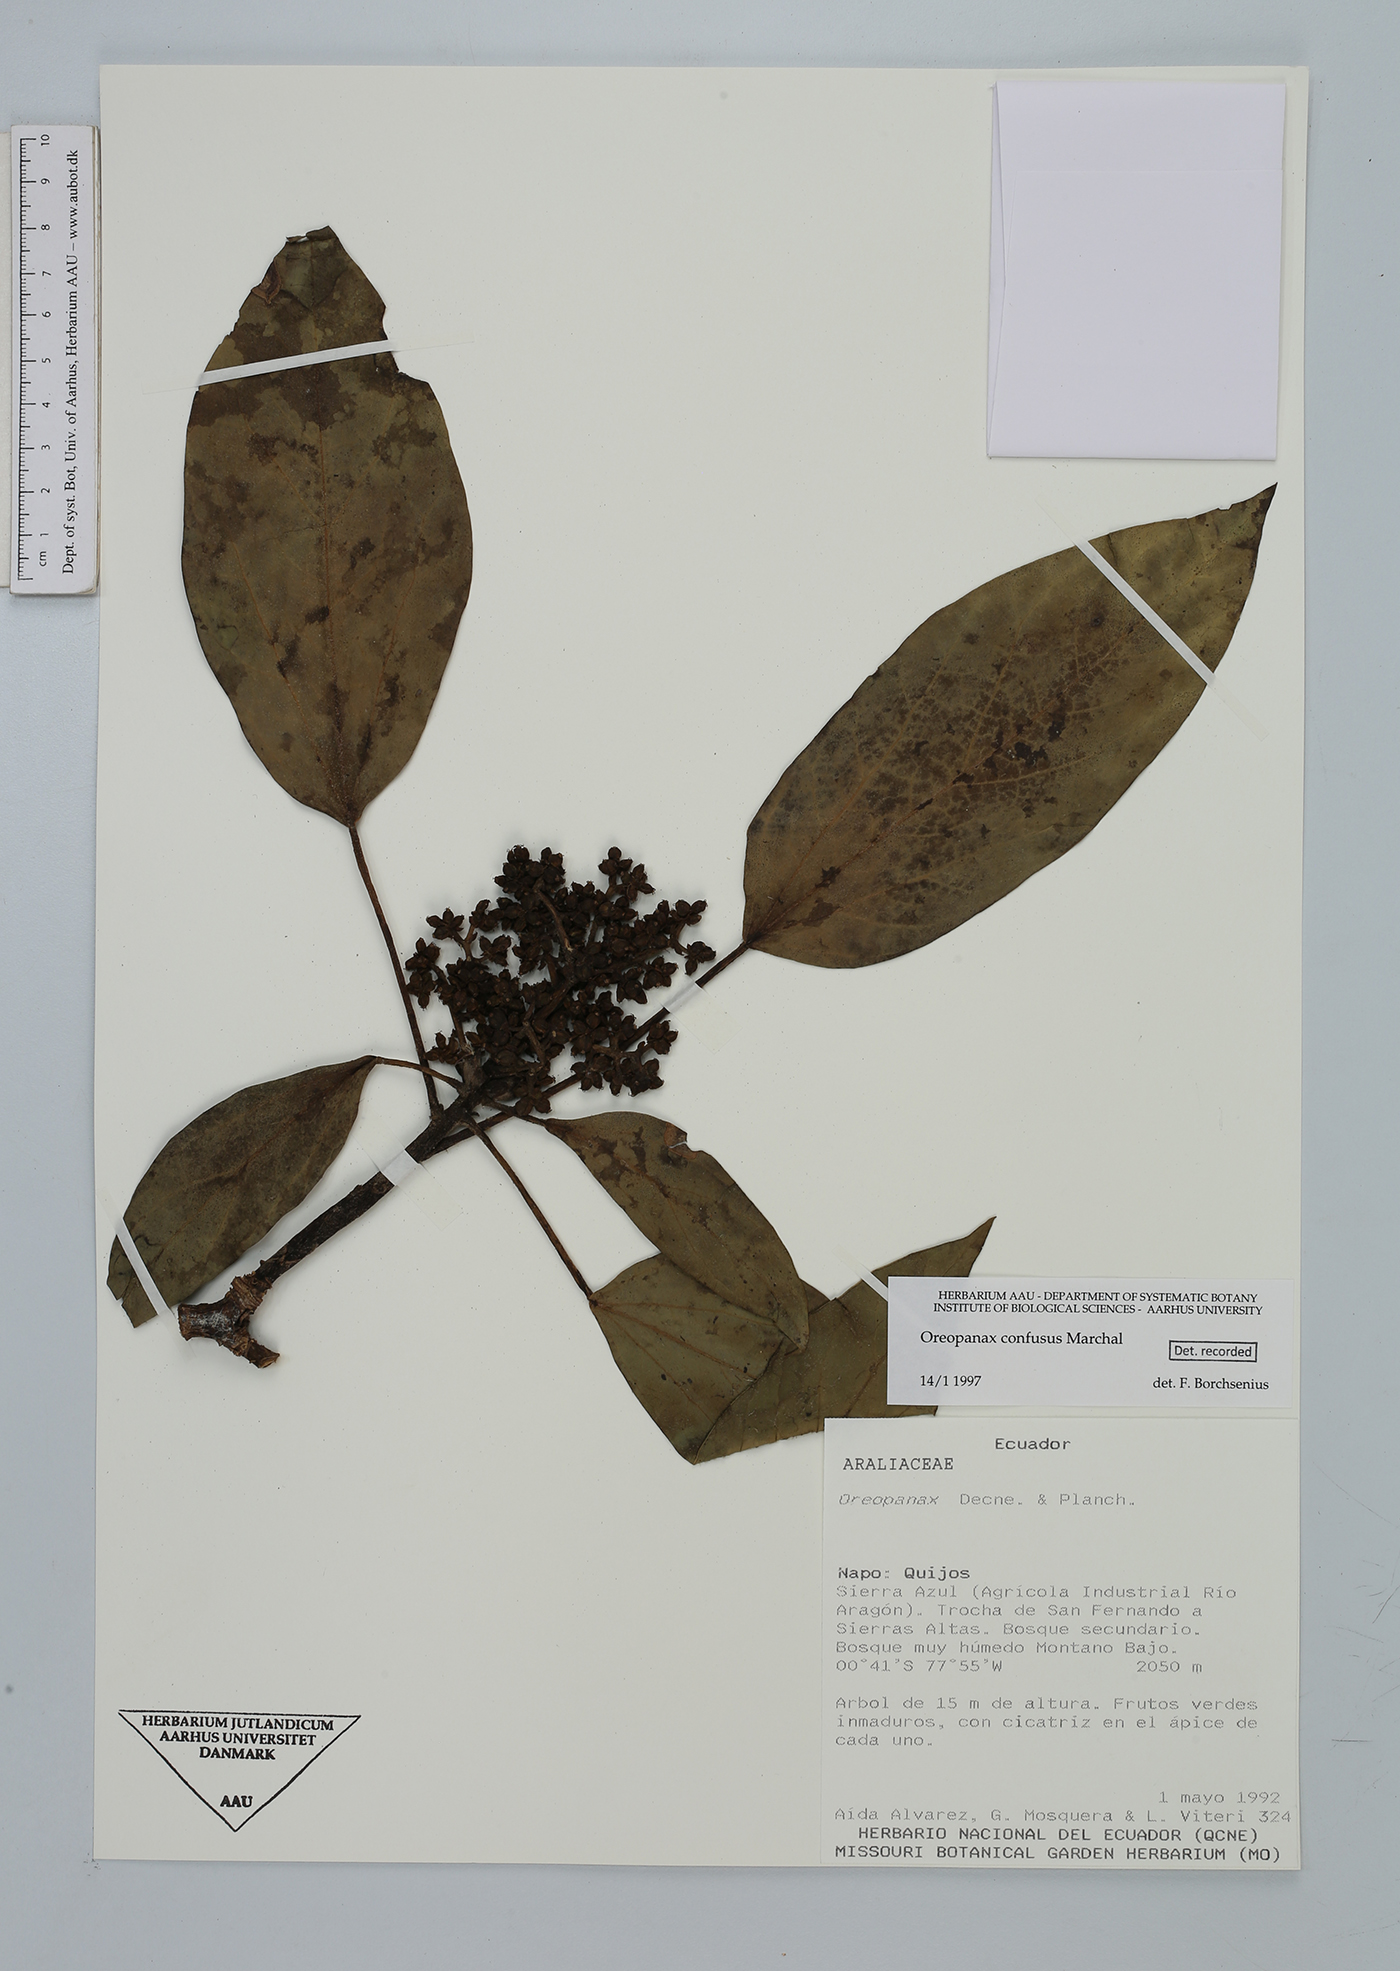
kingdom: Plantae
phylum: Tracheophyta
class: Magnoliopsida
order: Apiales
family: Araliaceae
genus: Oreopanax
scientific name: Oreopanax confusus
